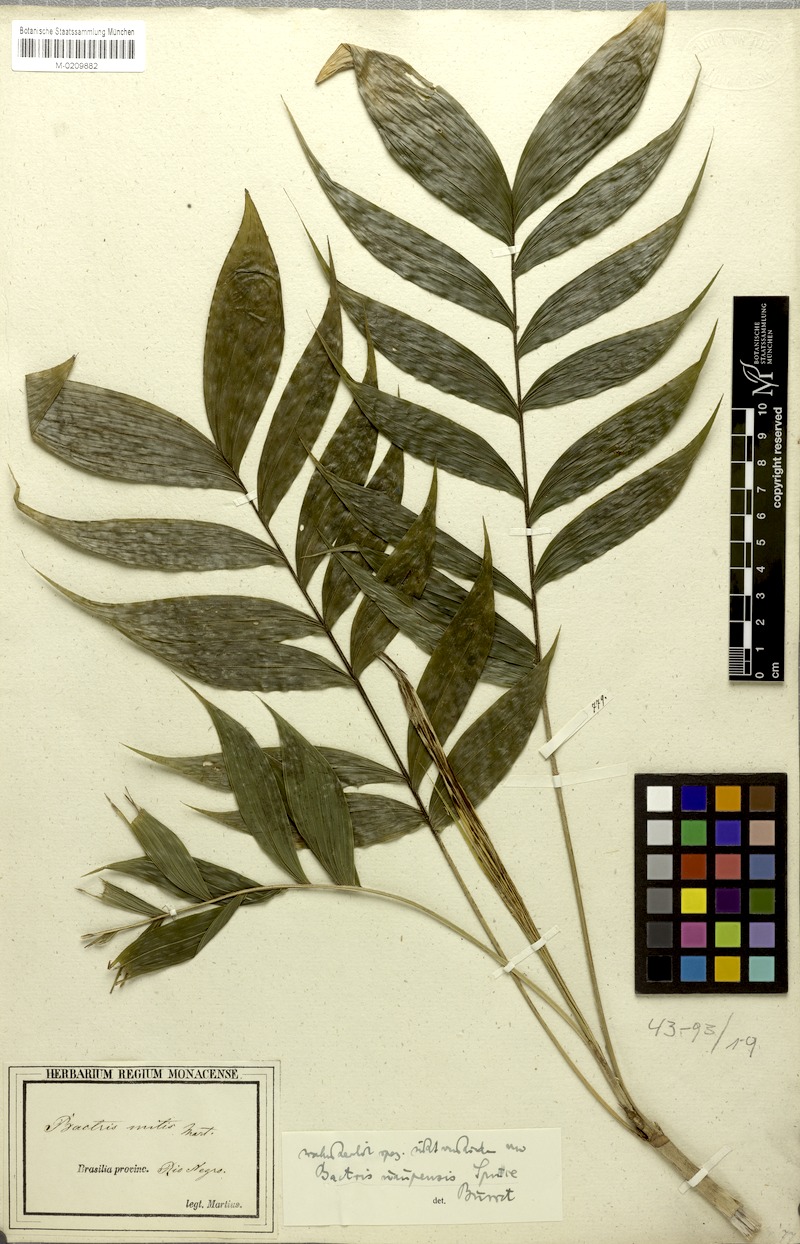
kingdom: Plantae
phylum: Tracheophyta
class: Liliopsida
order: Arecales
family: Arecaceae
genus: Bactris
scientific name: Bactris cuspidata
